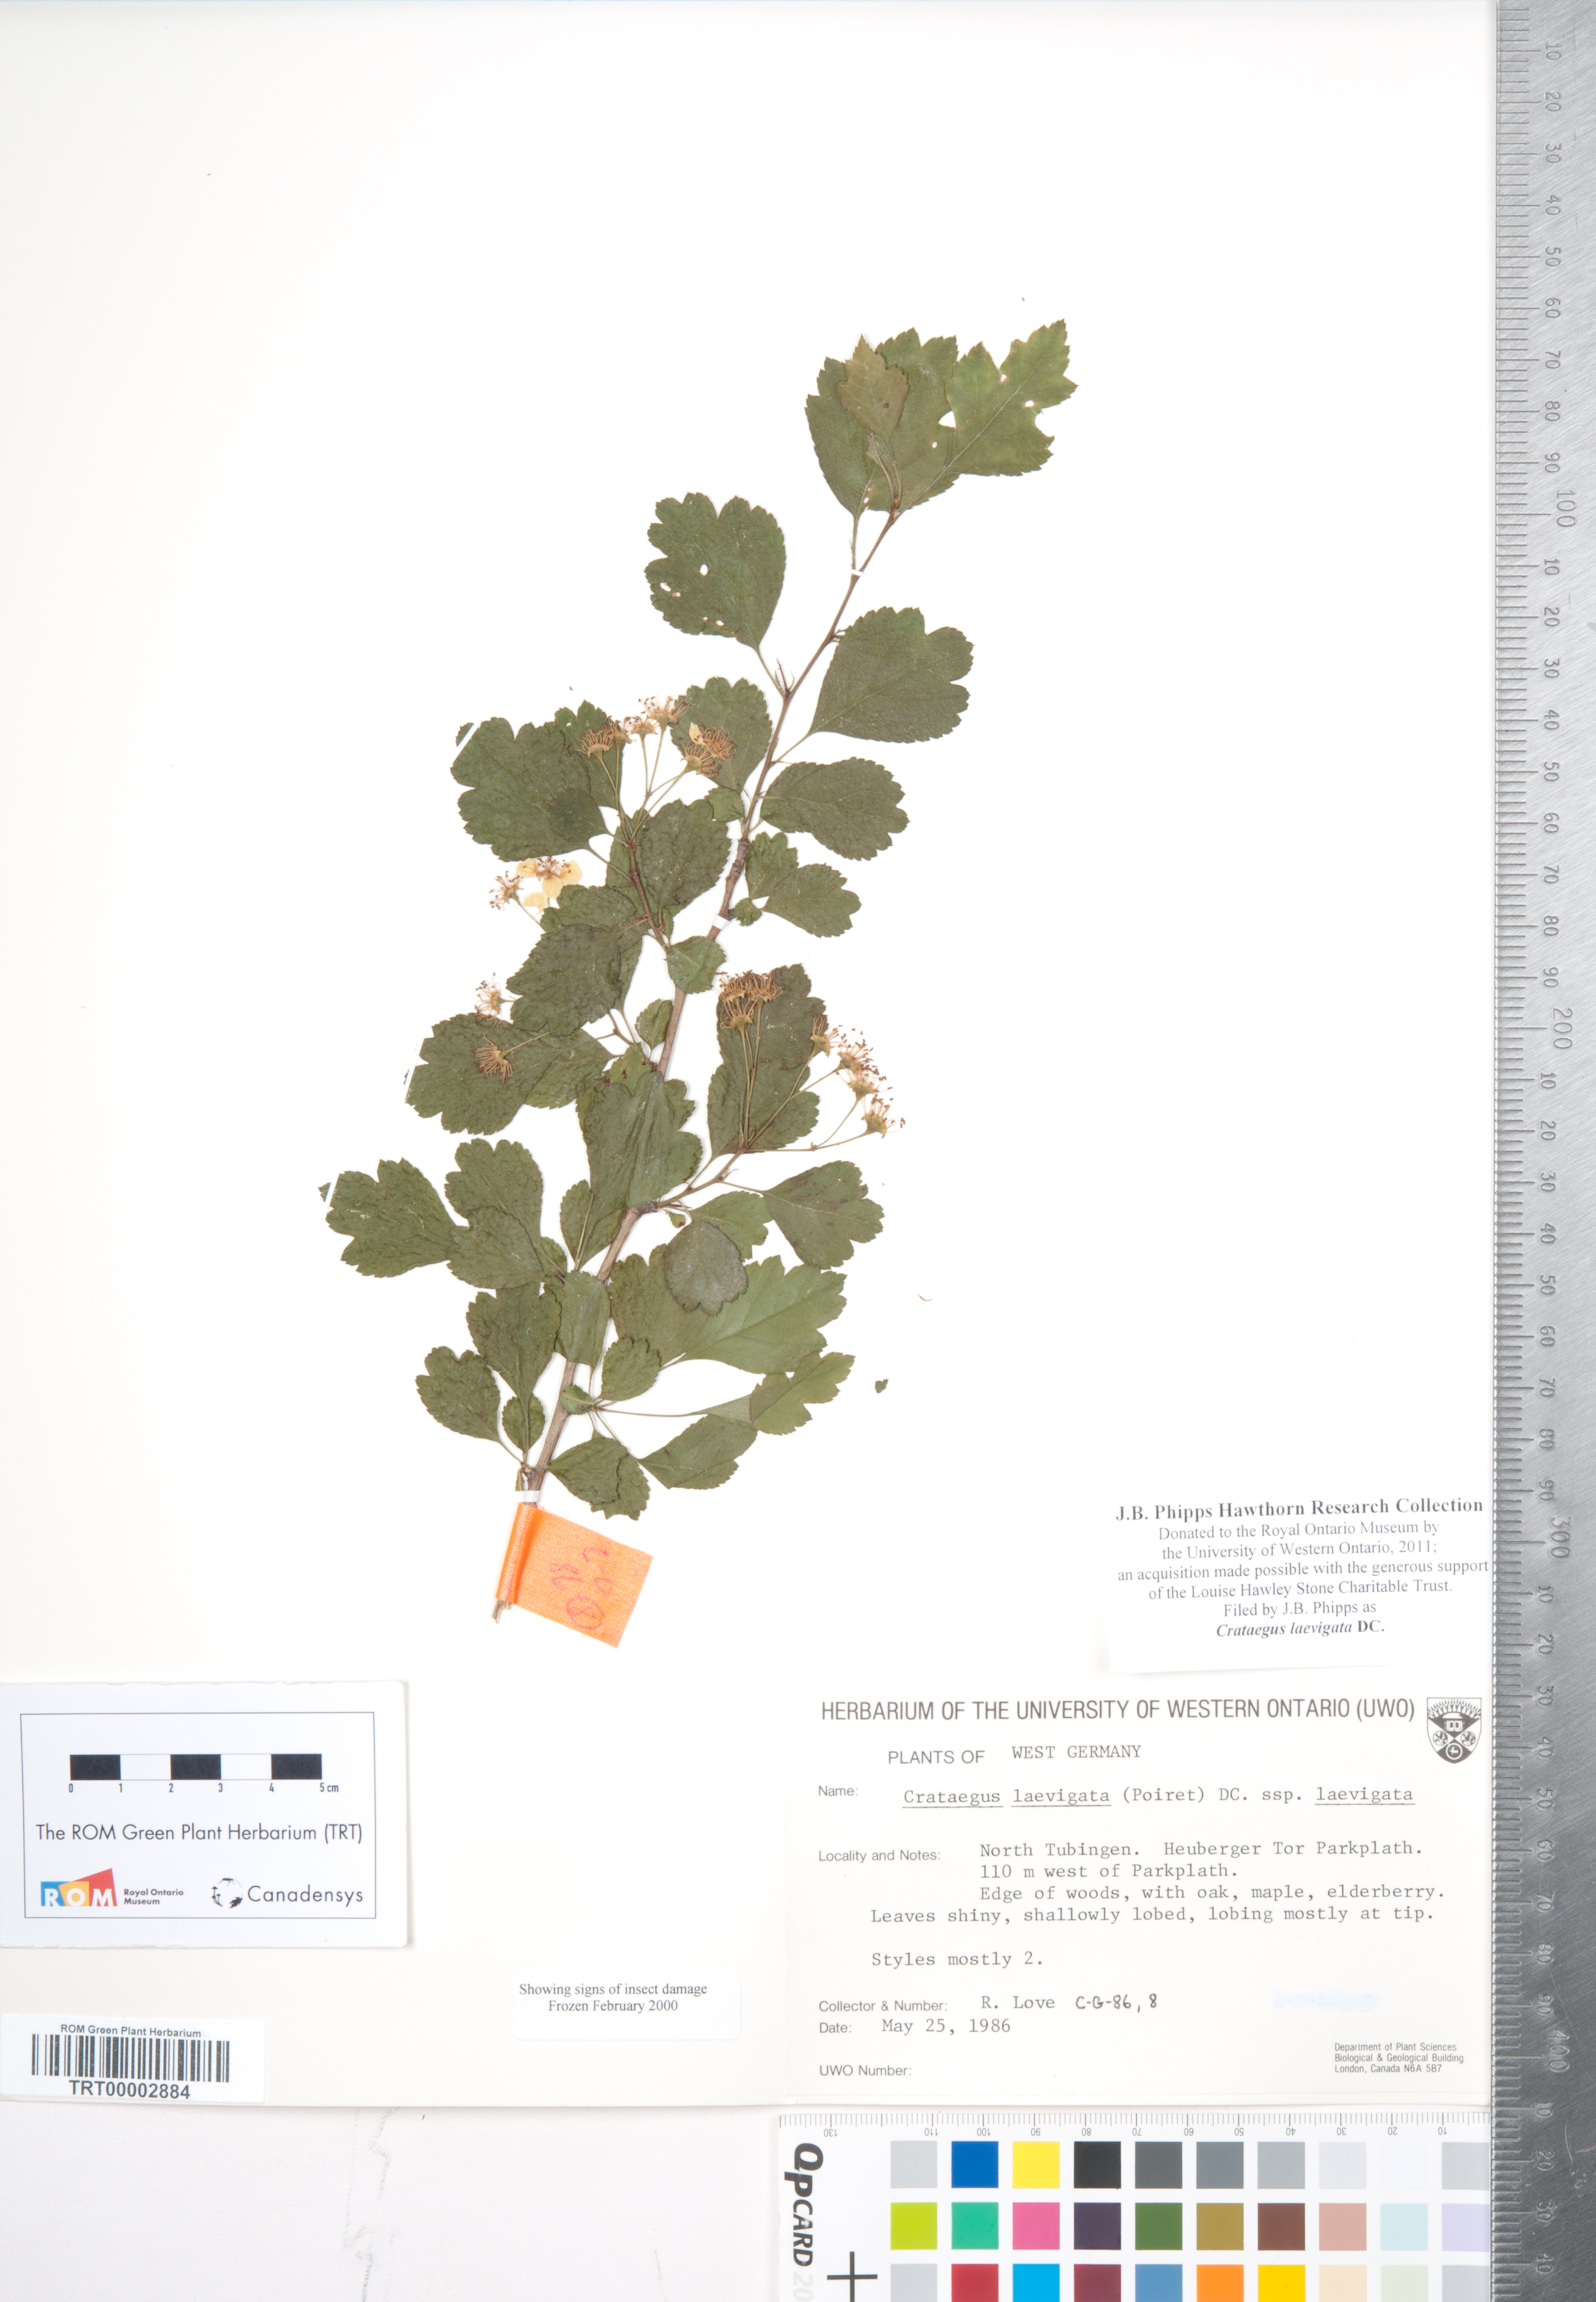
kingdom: Plantae
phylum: Tracheophyta
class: Magnoliopsida
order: Rosales
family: Rosaceae
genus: Crataegus
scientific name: Crataegus laevigata
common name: Midland hawthorn
